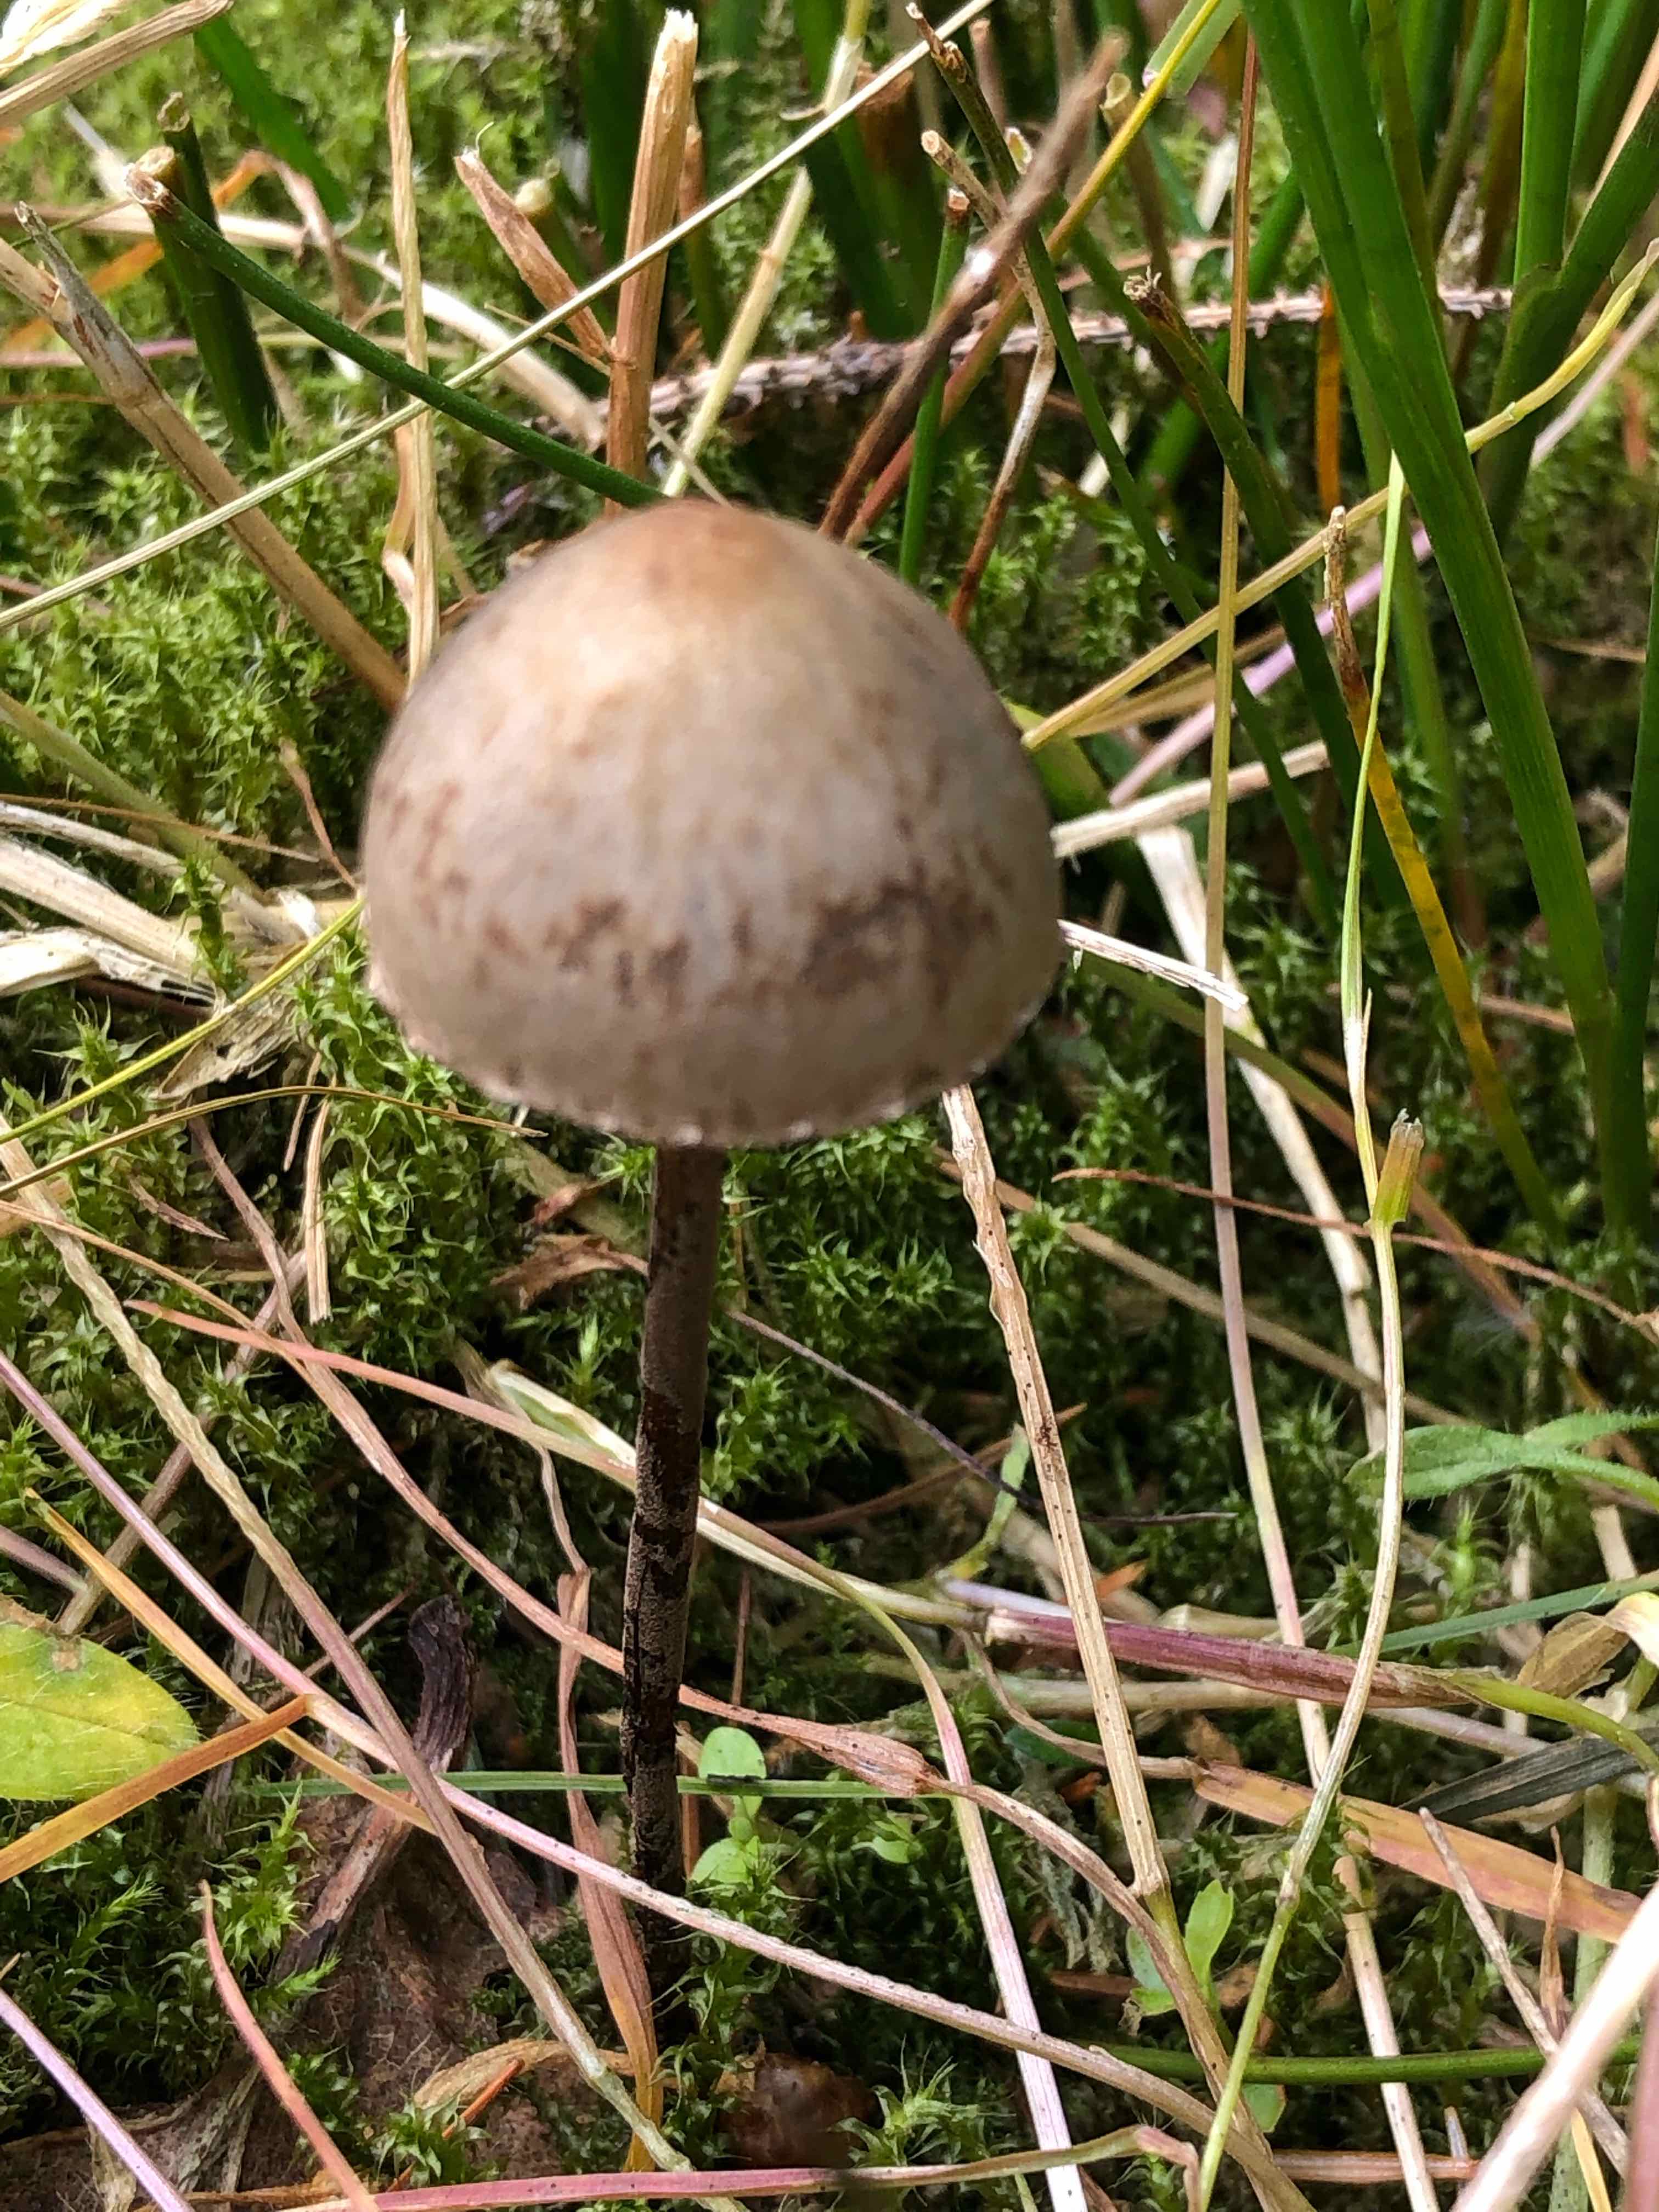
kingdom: Fungi
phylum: Basidiomycota
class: Agaricomycetes
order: Agaricales
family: Bolbitiaceae
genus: Panaeolus
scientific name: Panaeolus papilionaceus
